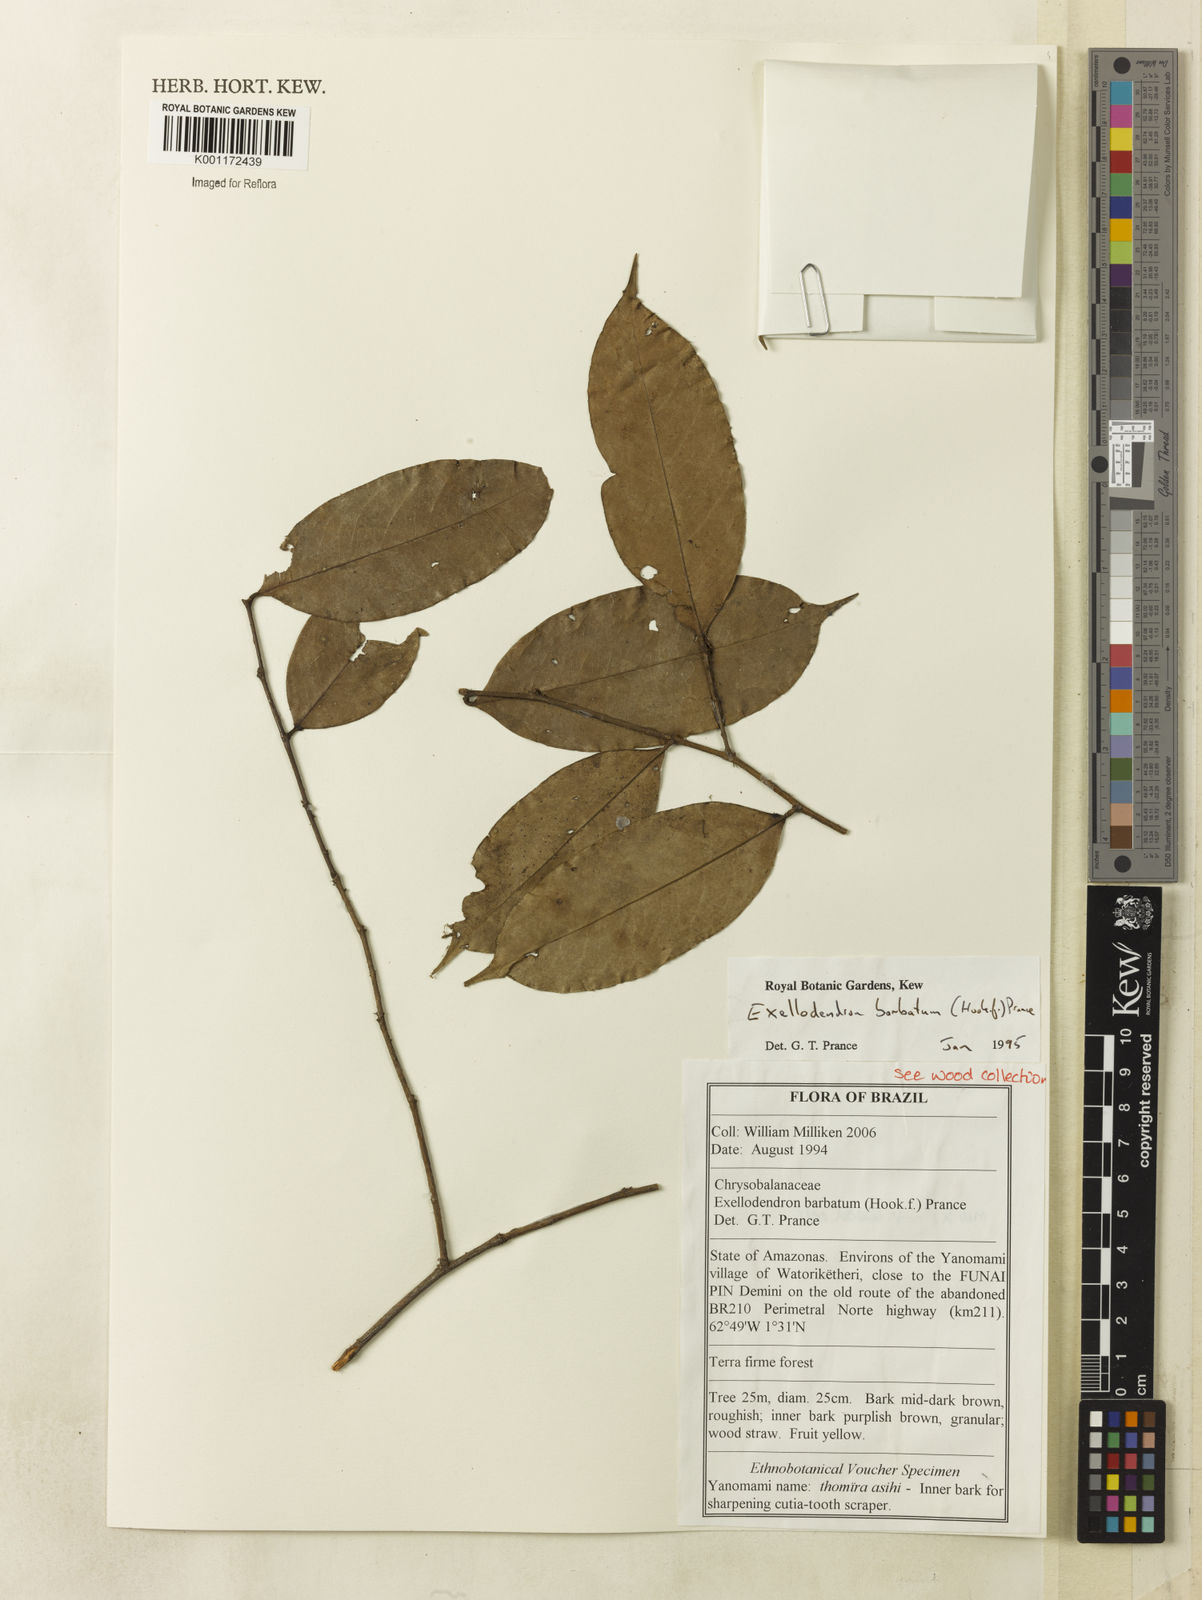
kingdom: Plantae
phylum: Tracheophyta
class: Magnoliopsida
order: Malpighiales
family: Chrysobalanaceae
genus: Atuna
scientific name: Atuna
